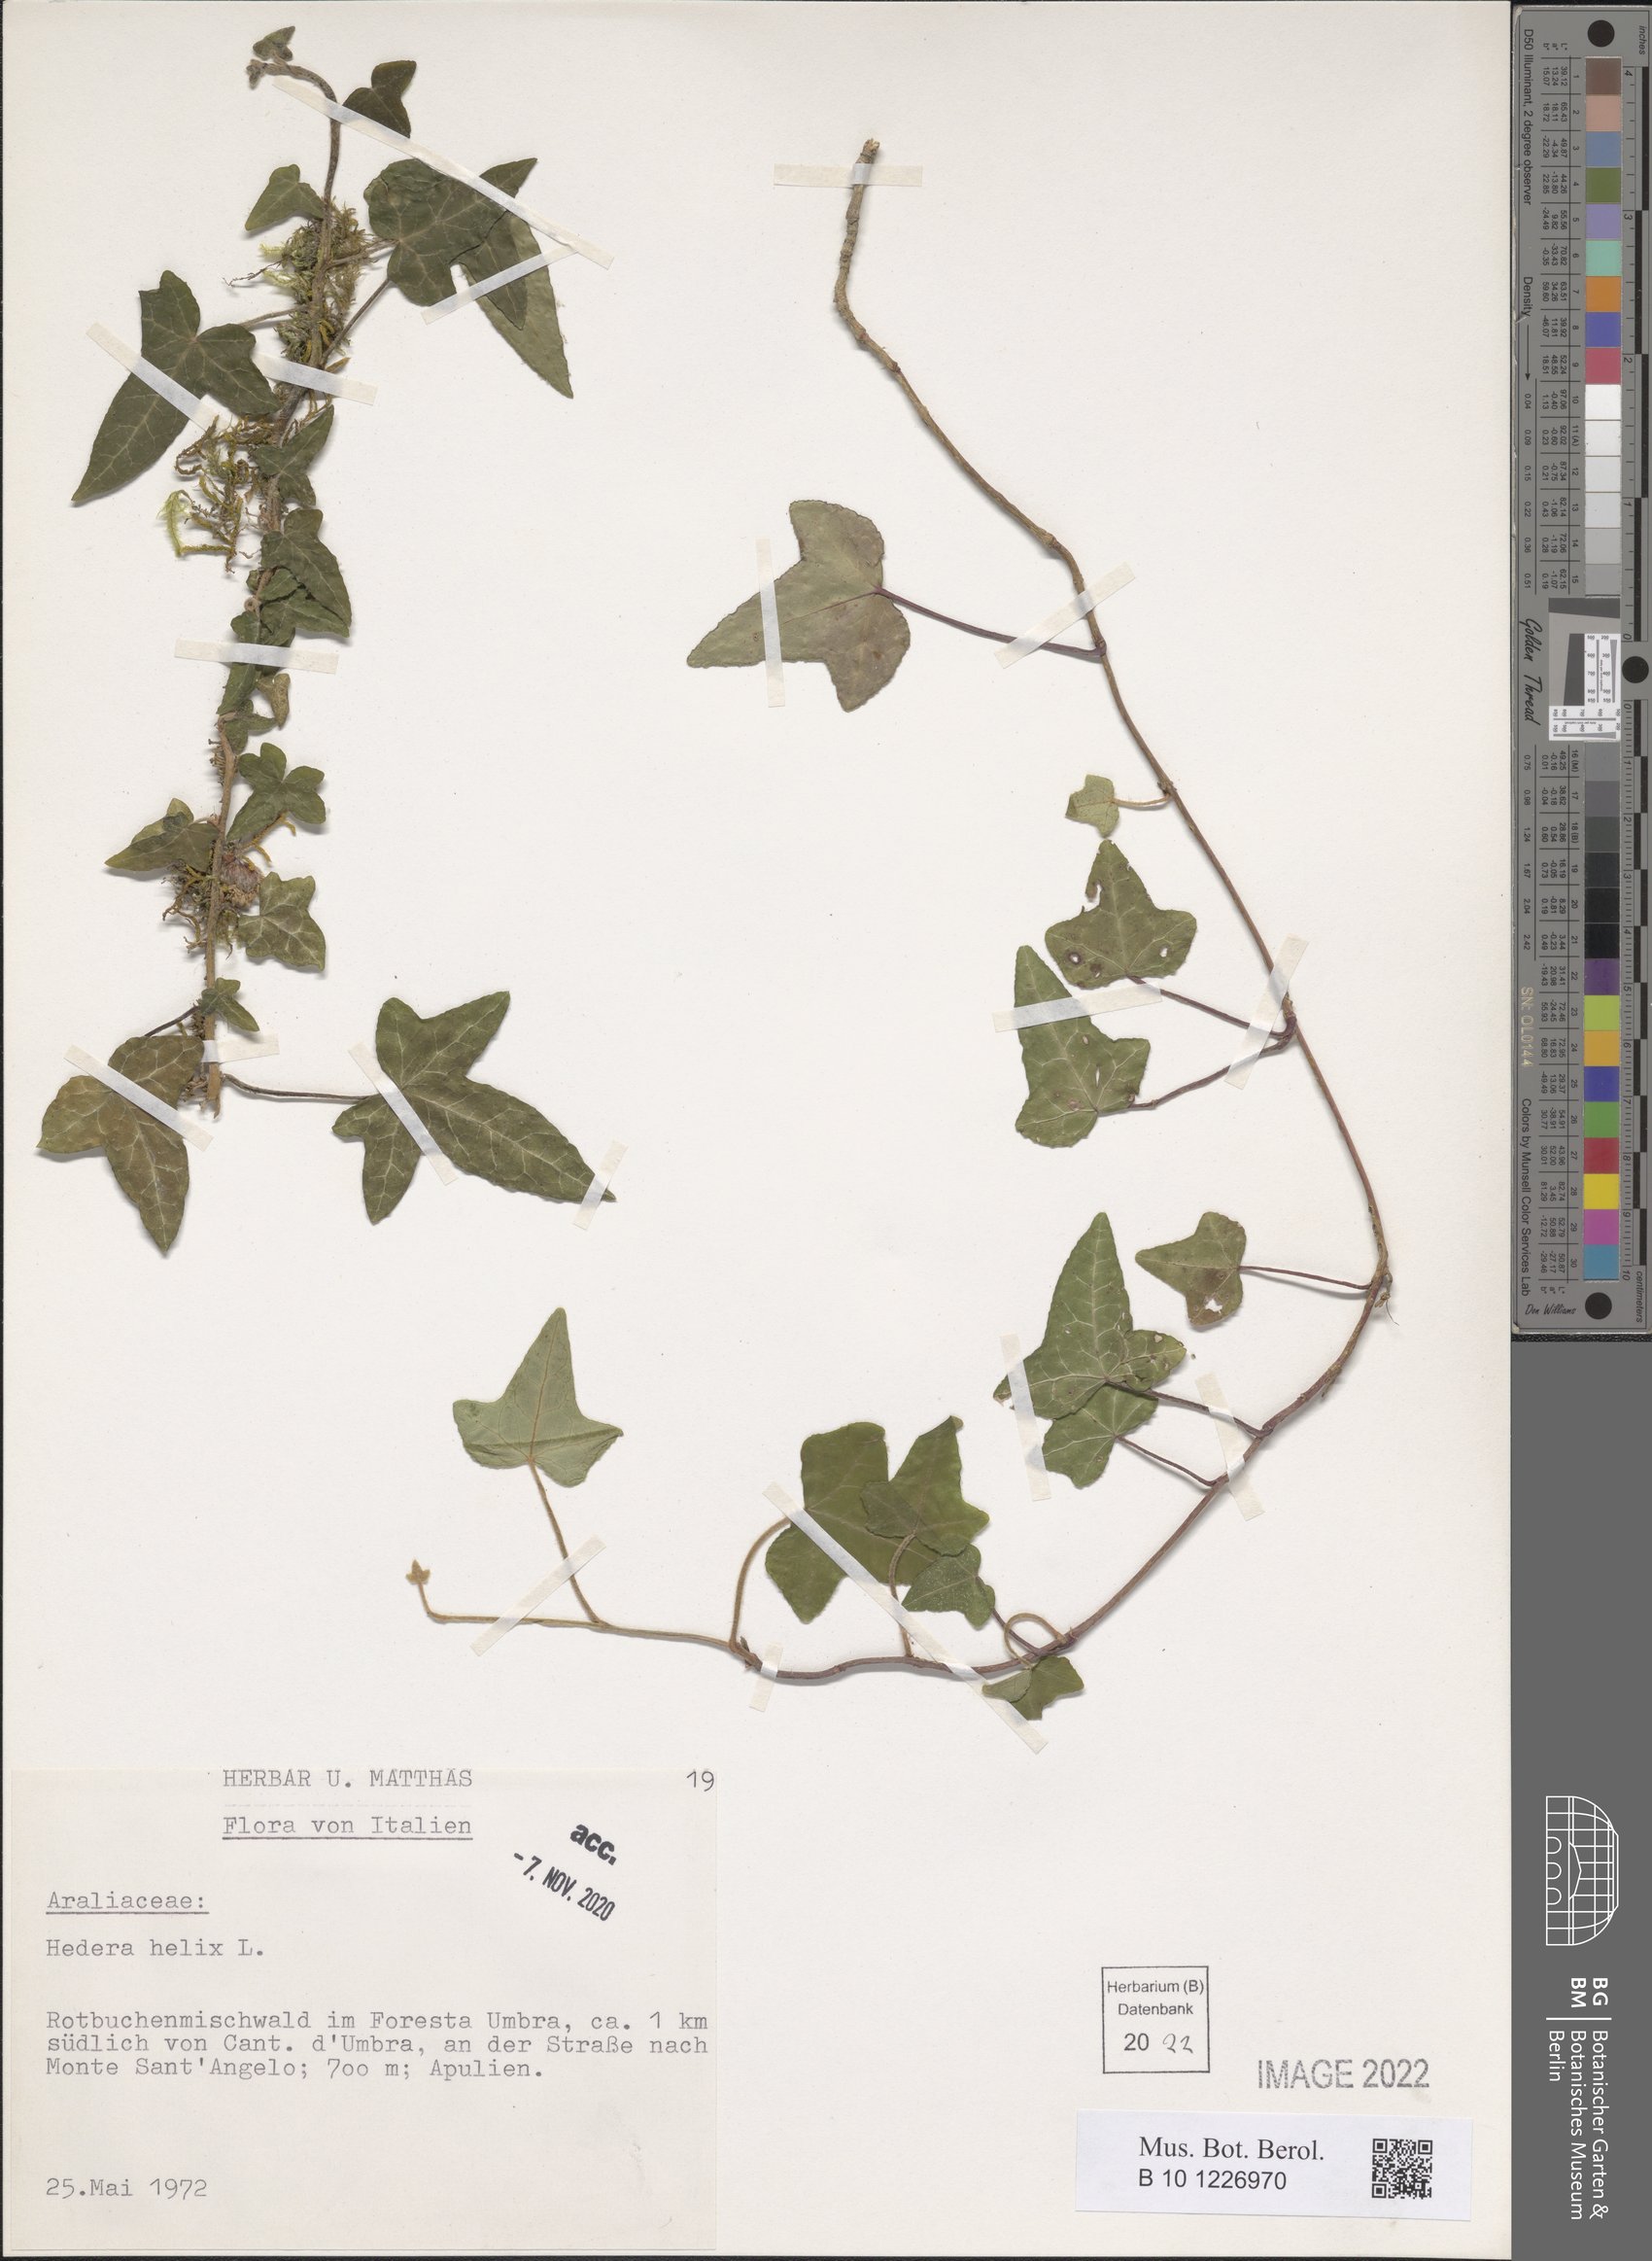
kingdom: Plantae
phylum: Tracheophyta
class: Magnoliopsida
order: Apiales
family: Araliaceae
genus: Hedera
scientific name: Hedera helix
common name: Ivy
